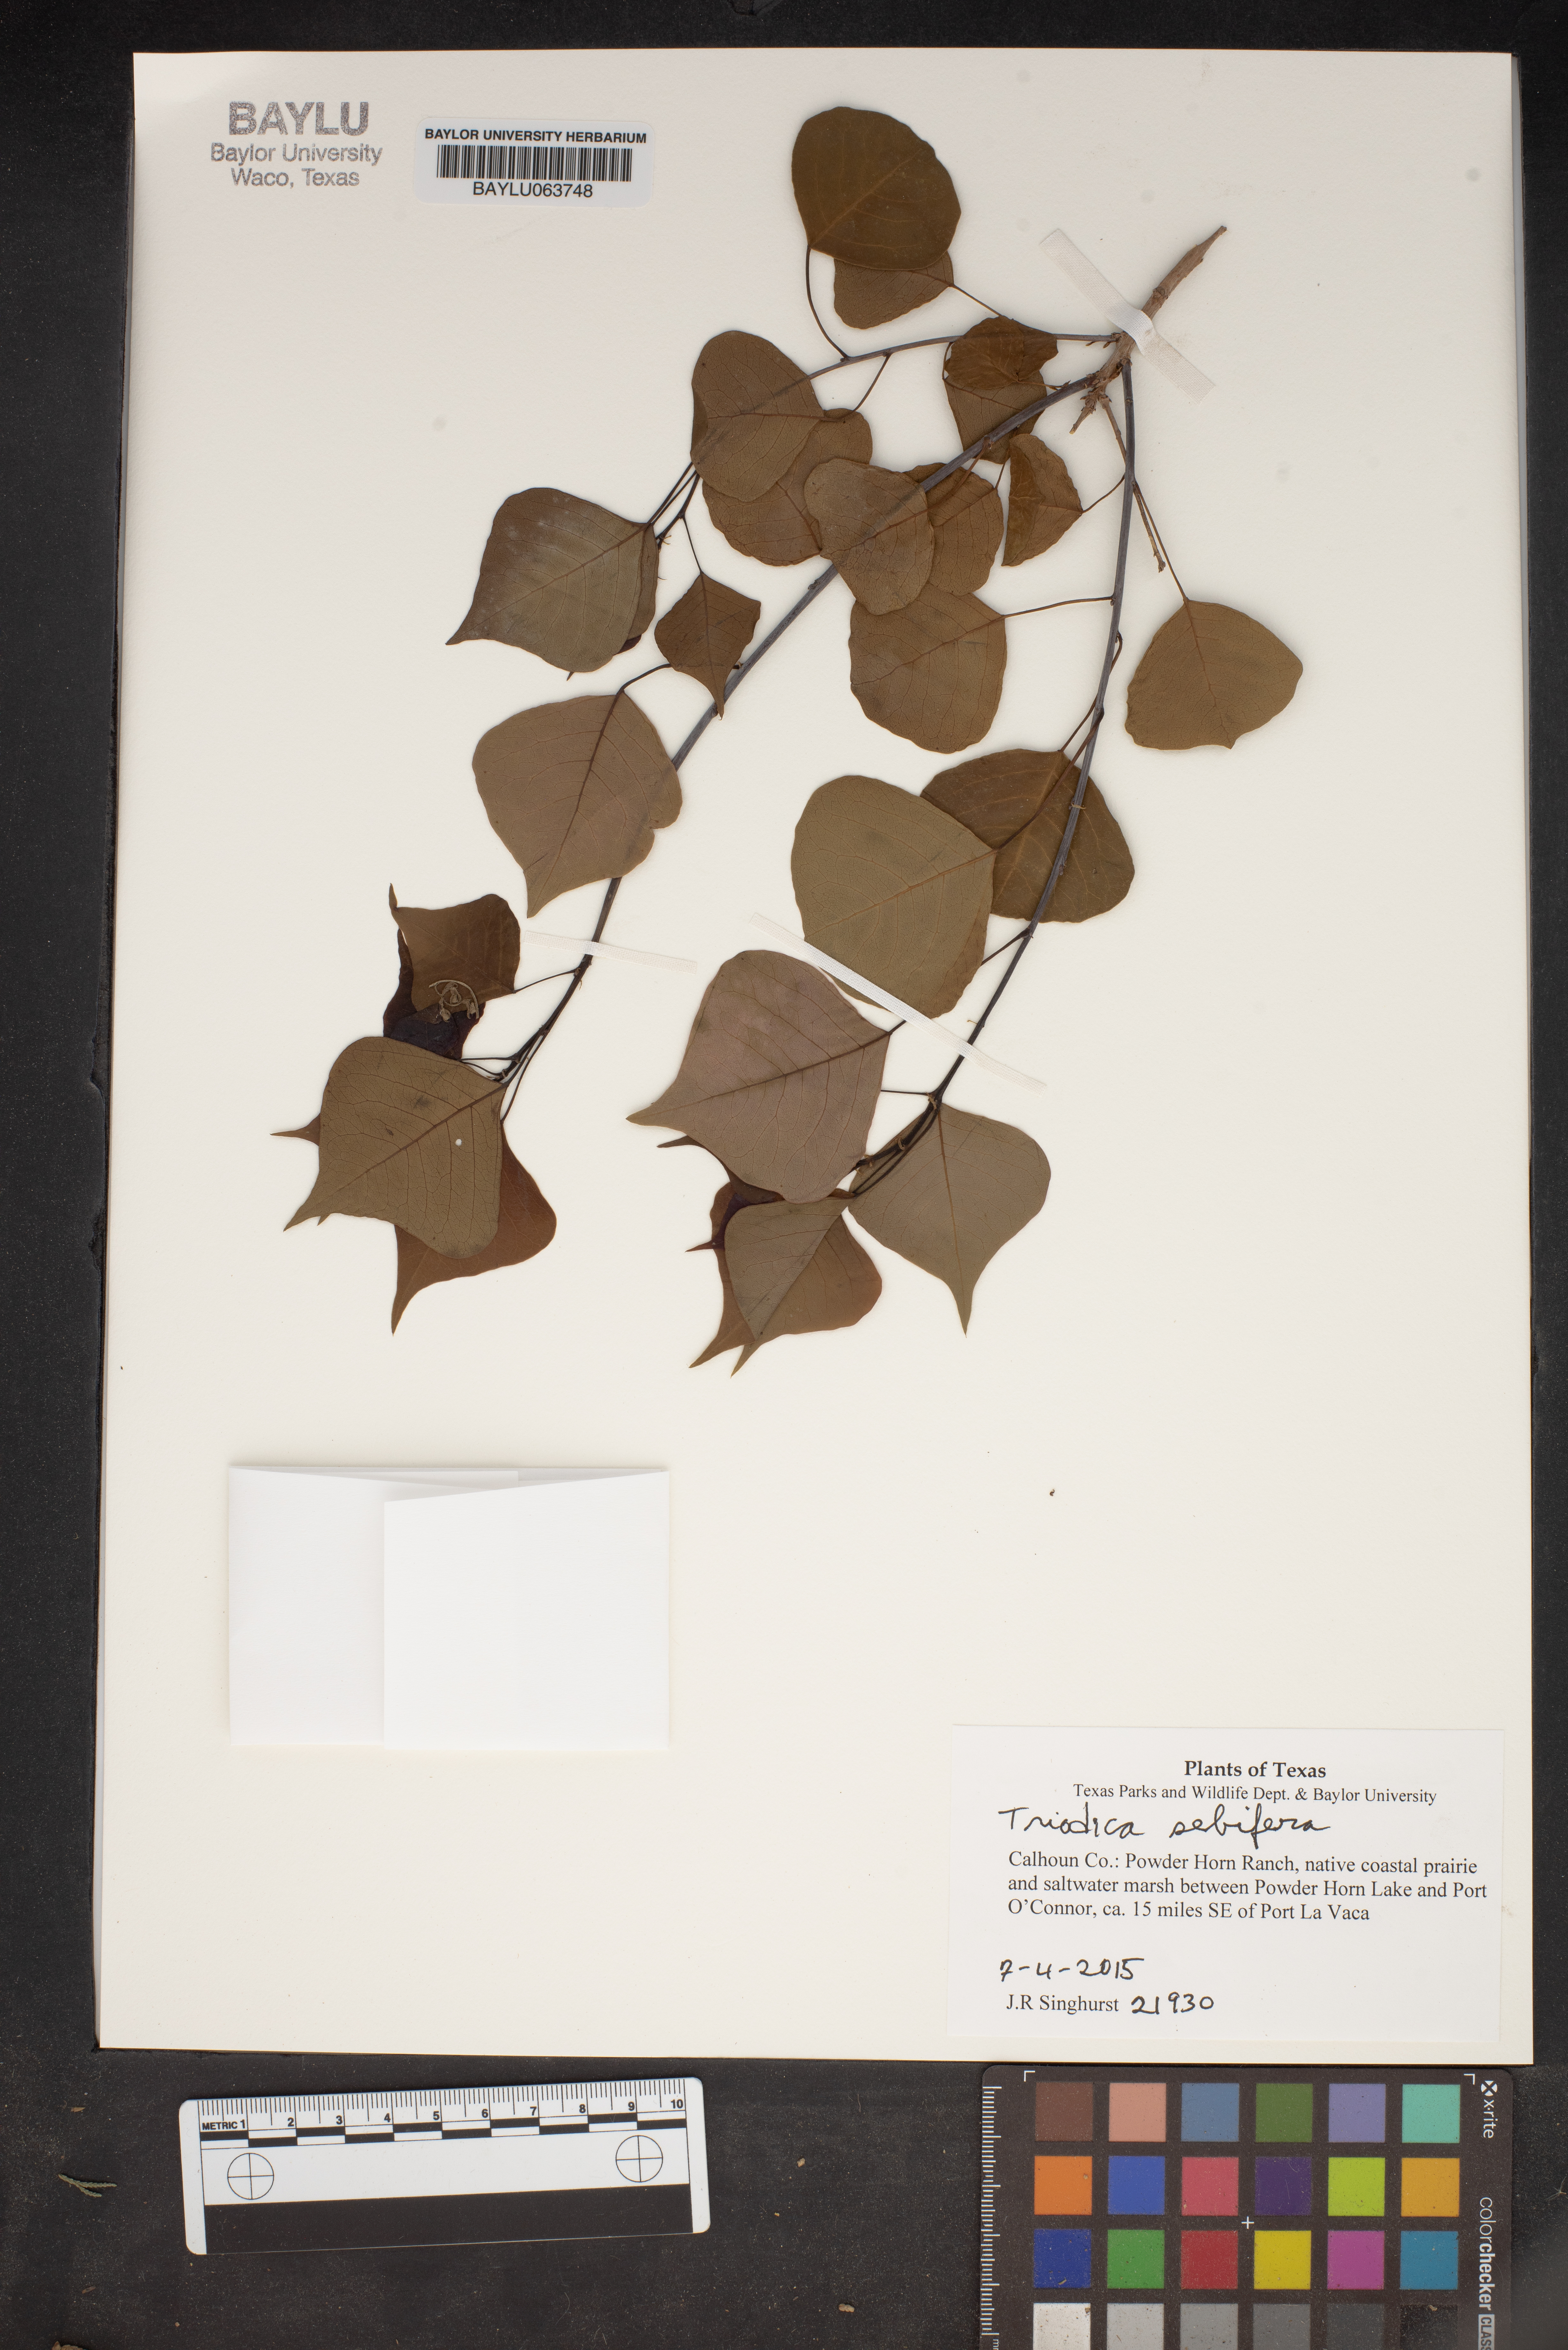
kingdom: Plantae
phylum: Tracheophyta
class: Magnoliopsida
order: Malpighiales
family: Euphorbiaceae
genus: Triadica
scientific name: Triadica sebifera
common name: Chinese tallow
